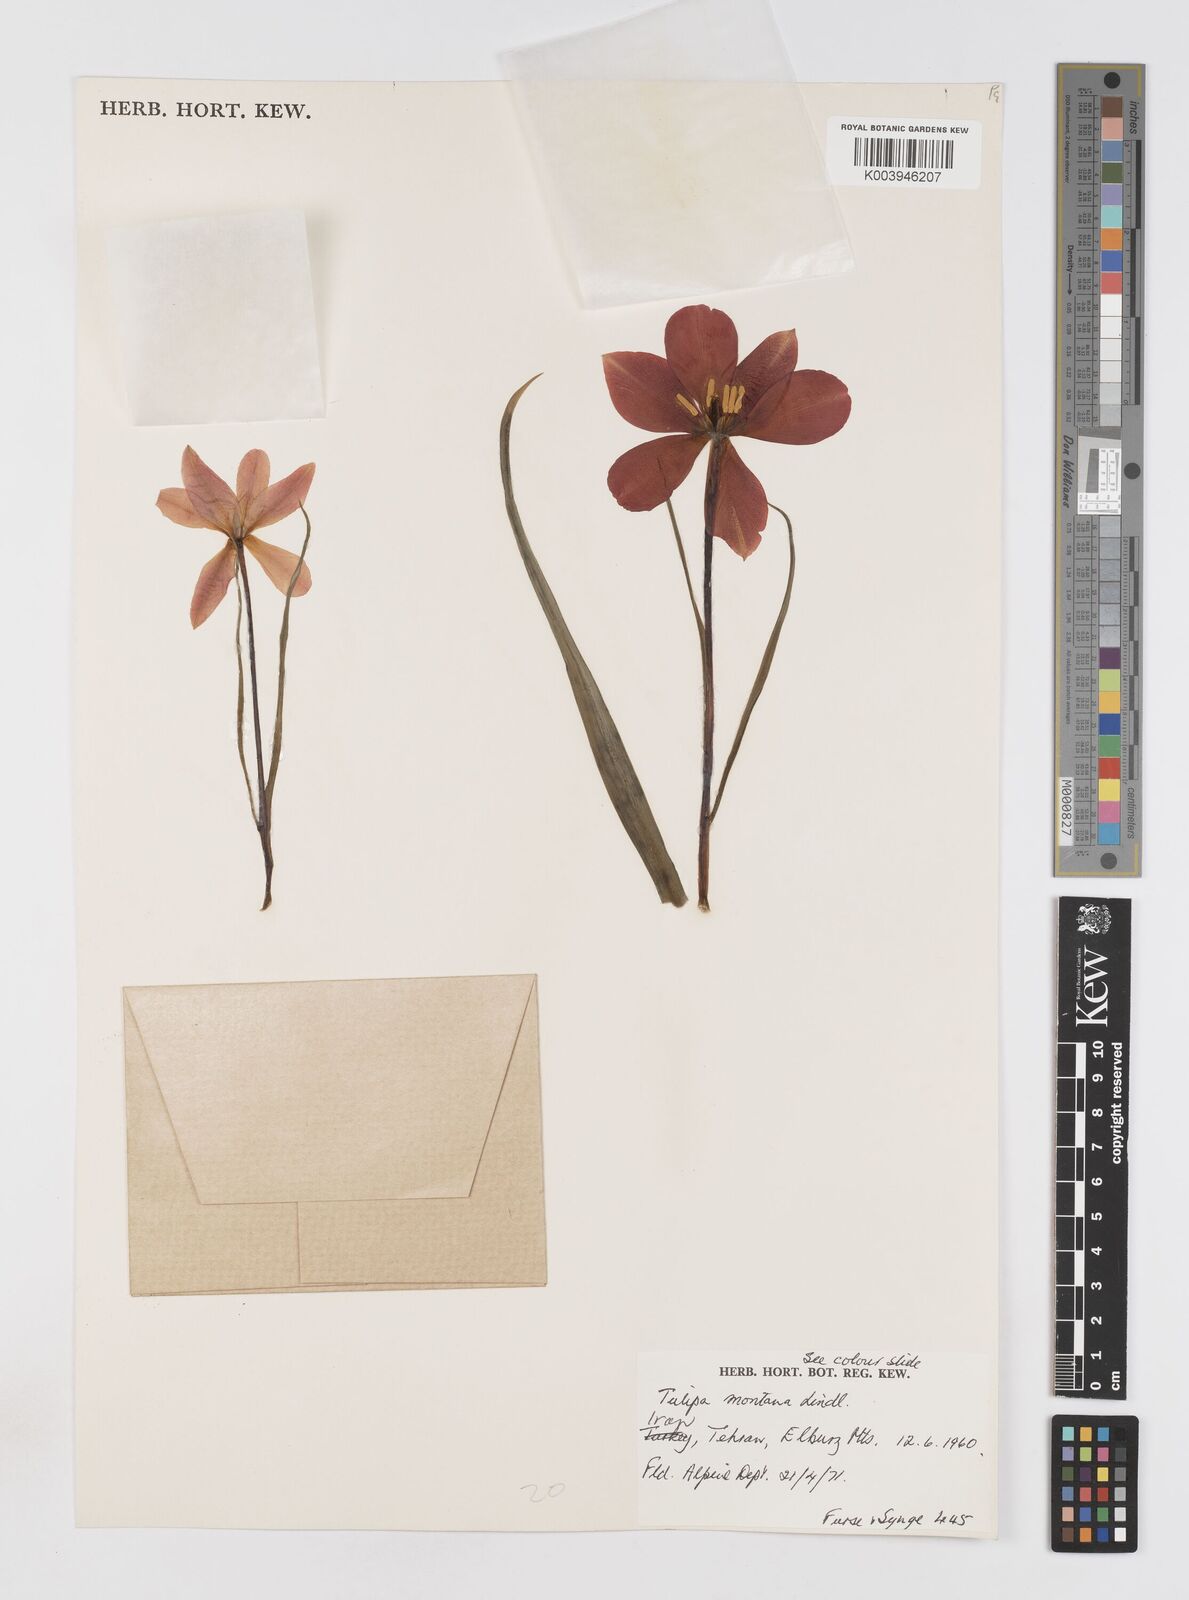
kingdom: Plantae
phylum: Tracheophyta
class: Liliopsida
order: Liliales
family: Liliaceae
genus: Tulipa
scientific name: Tulipa montana
